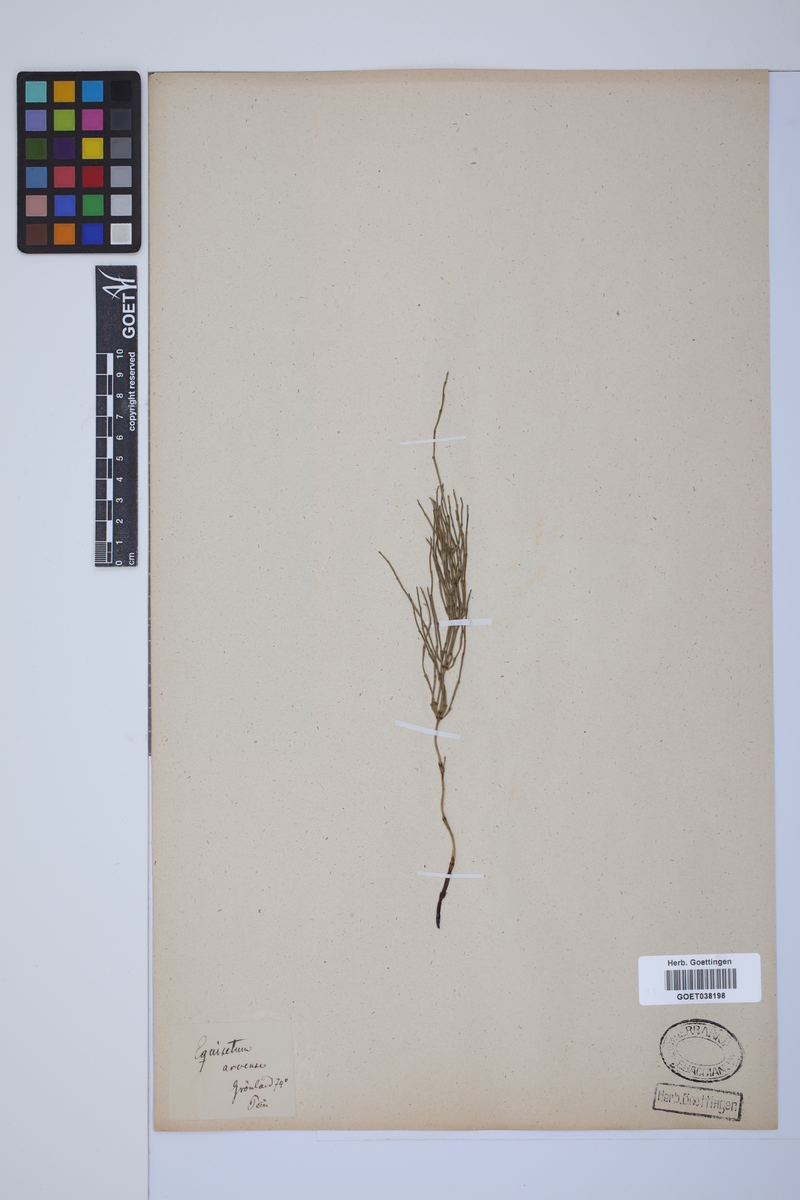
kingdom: Plantae
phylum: Tracheophyta
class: Polypodiopsida
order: Equisetales
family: Equisetaceae
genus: Equisetum
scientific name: Equisetum arvense
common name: Field horsetail
